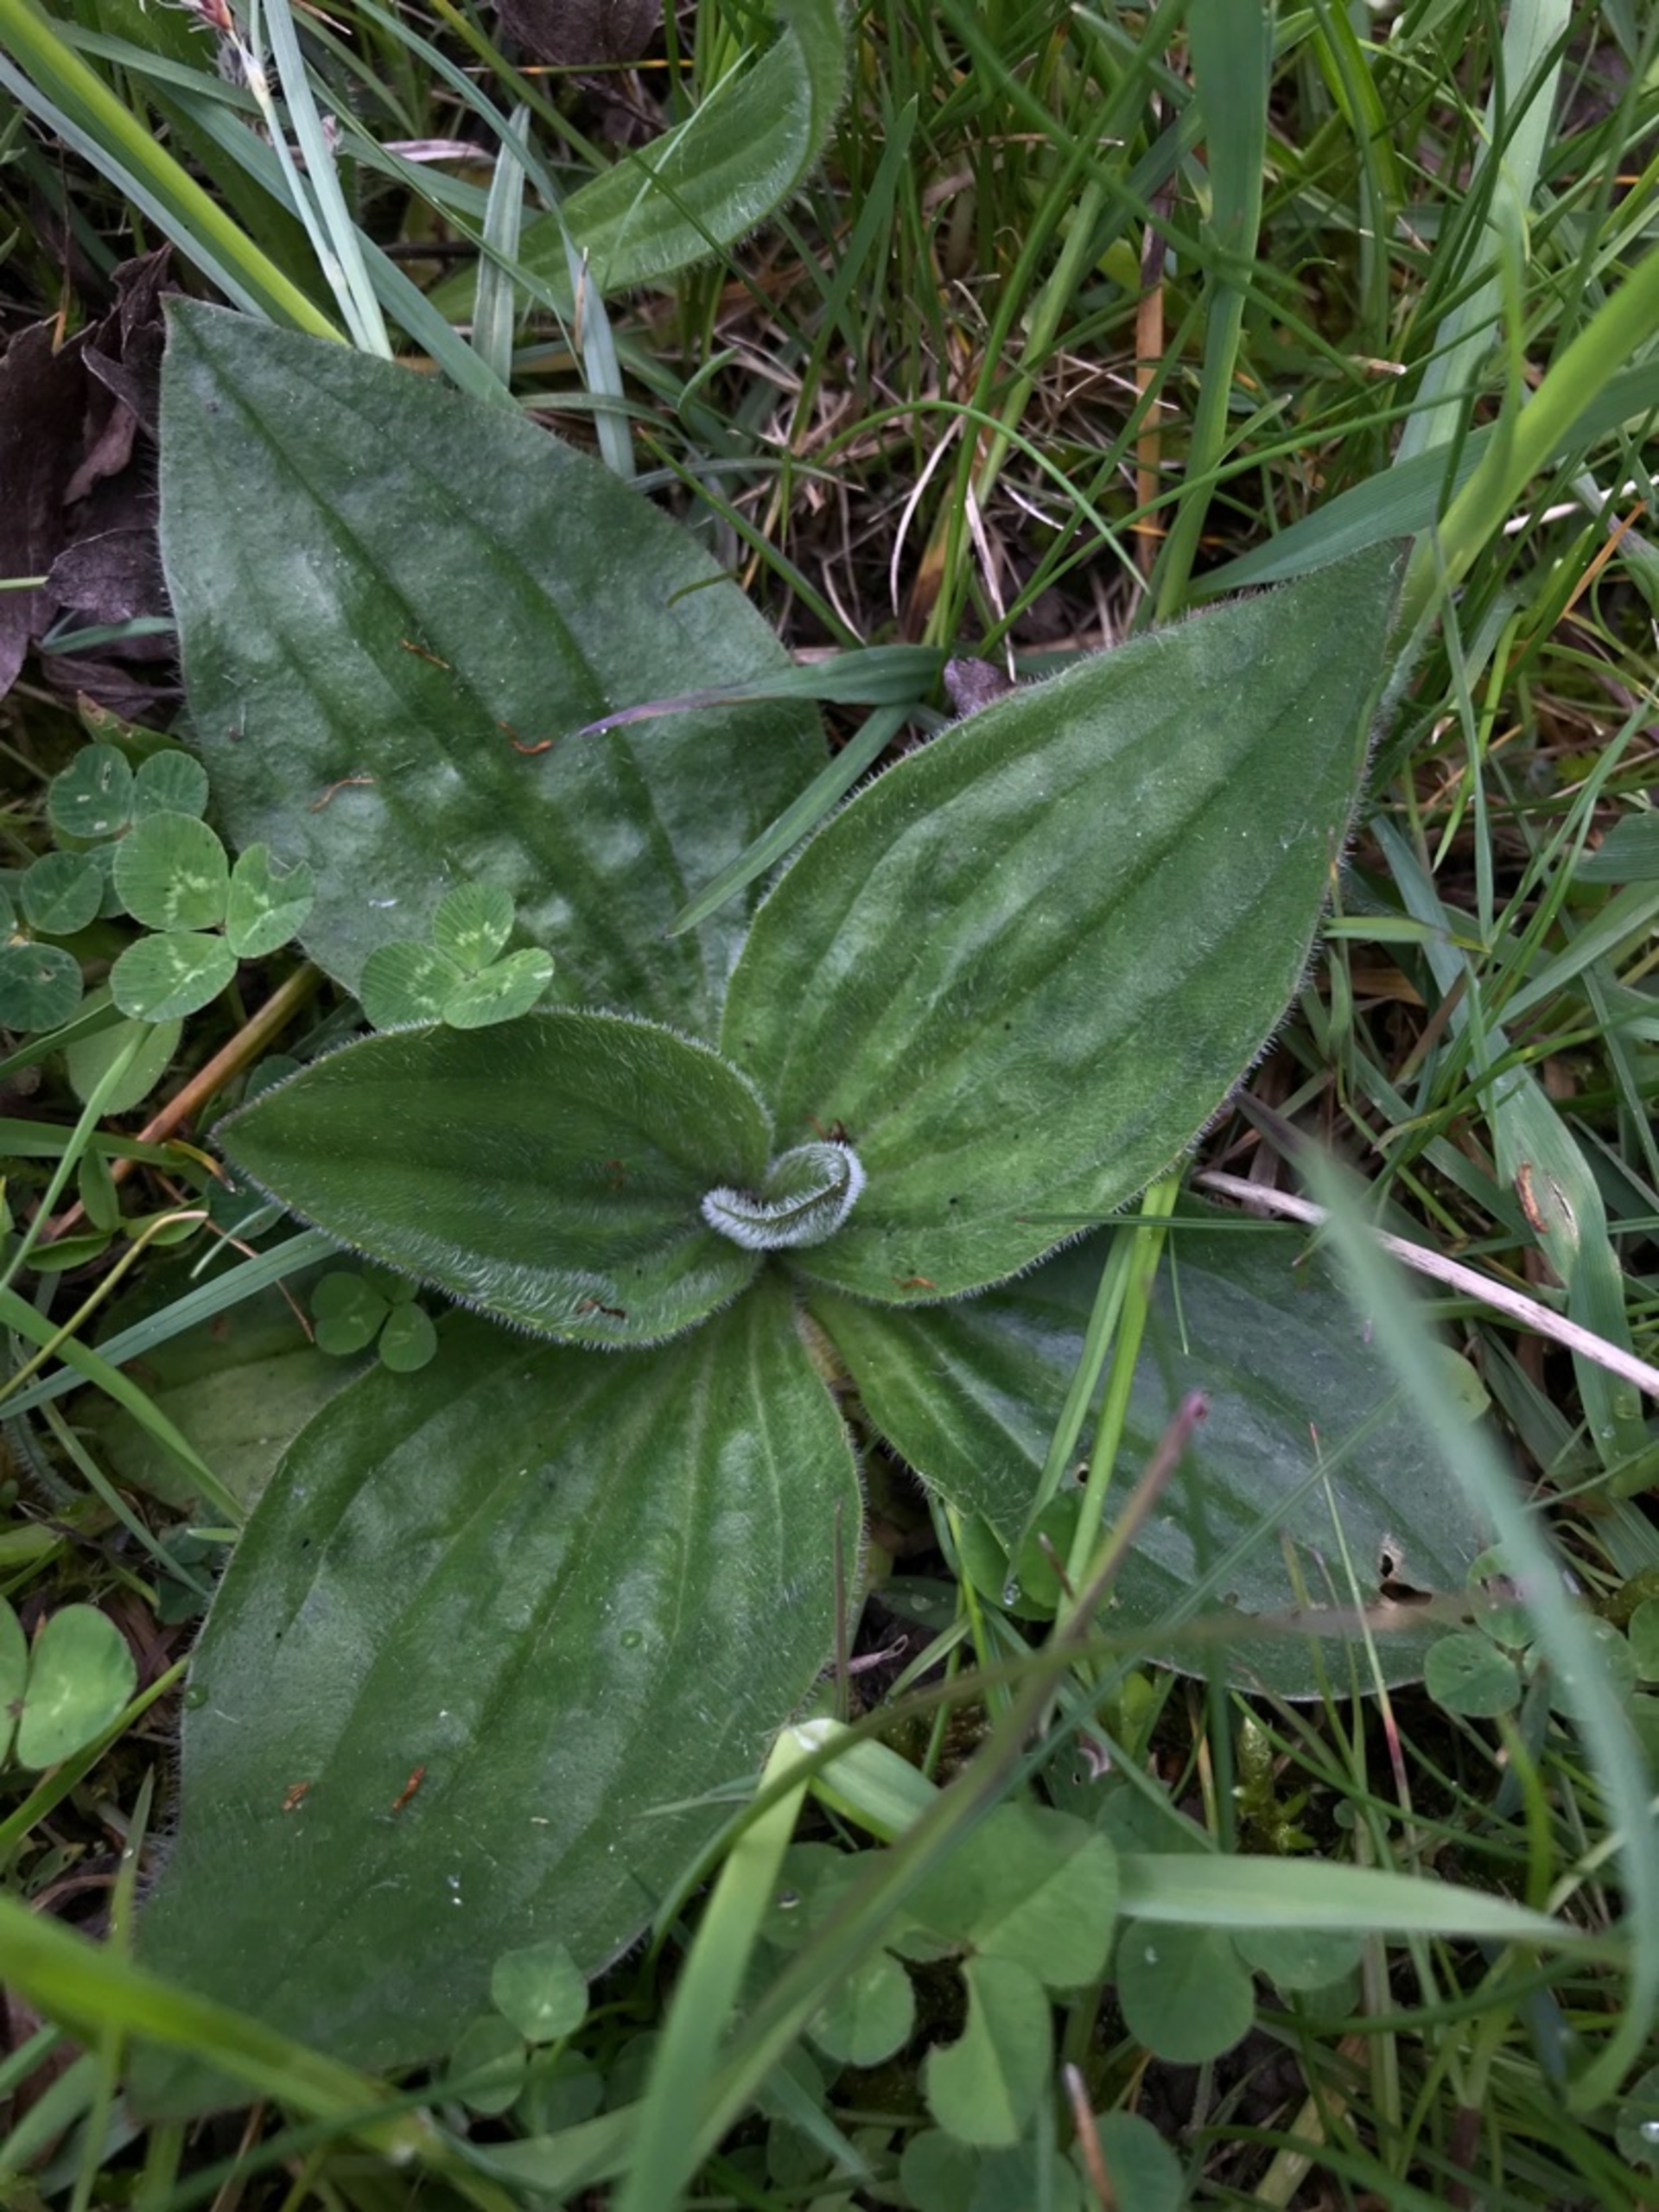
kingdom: Plantae
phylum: Tracheophyta
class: Magnoliopsida
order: Lamiales
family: Plantaginaceae
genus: Plantago
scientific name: Plantago media
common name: Dunet vejbred
